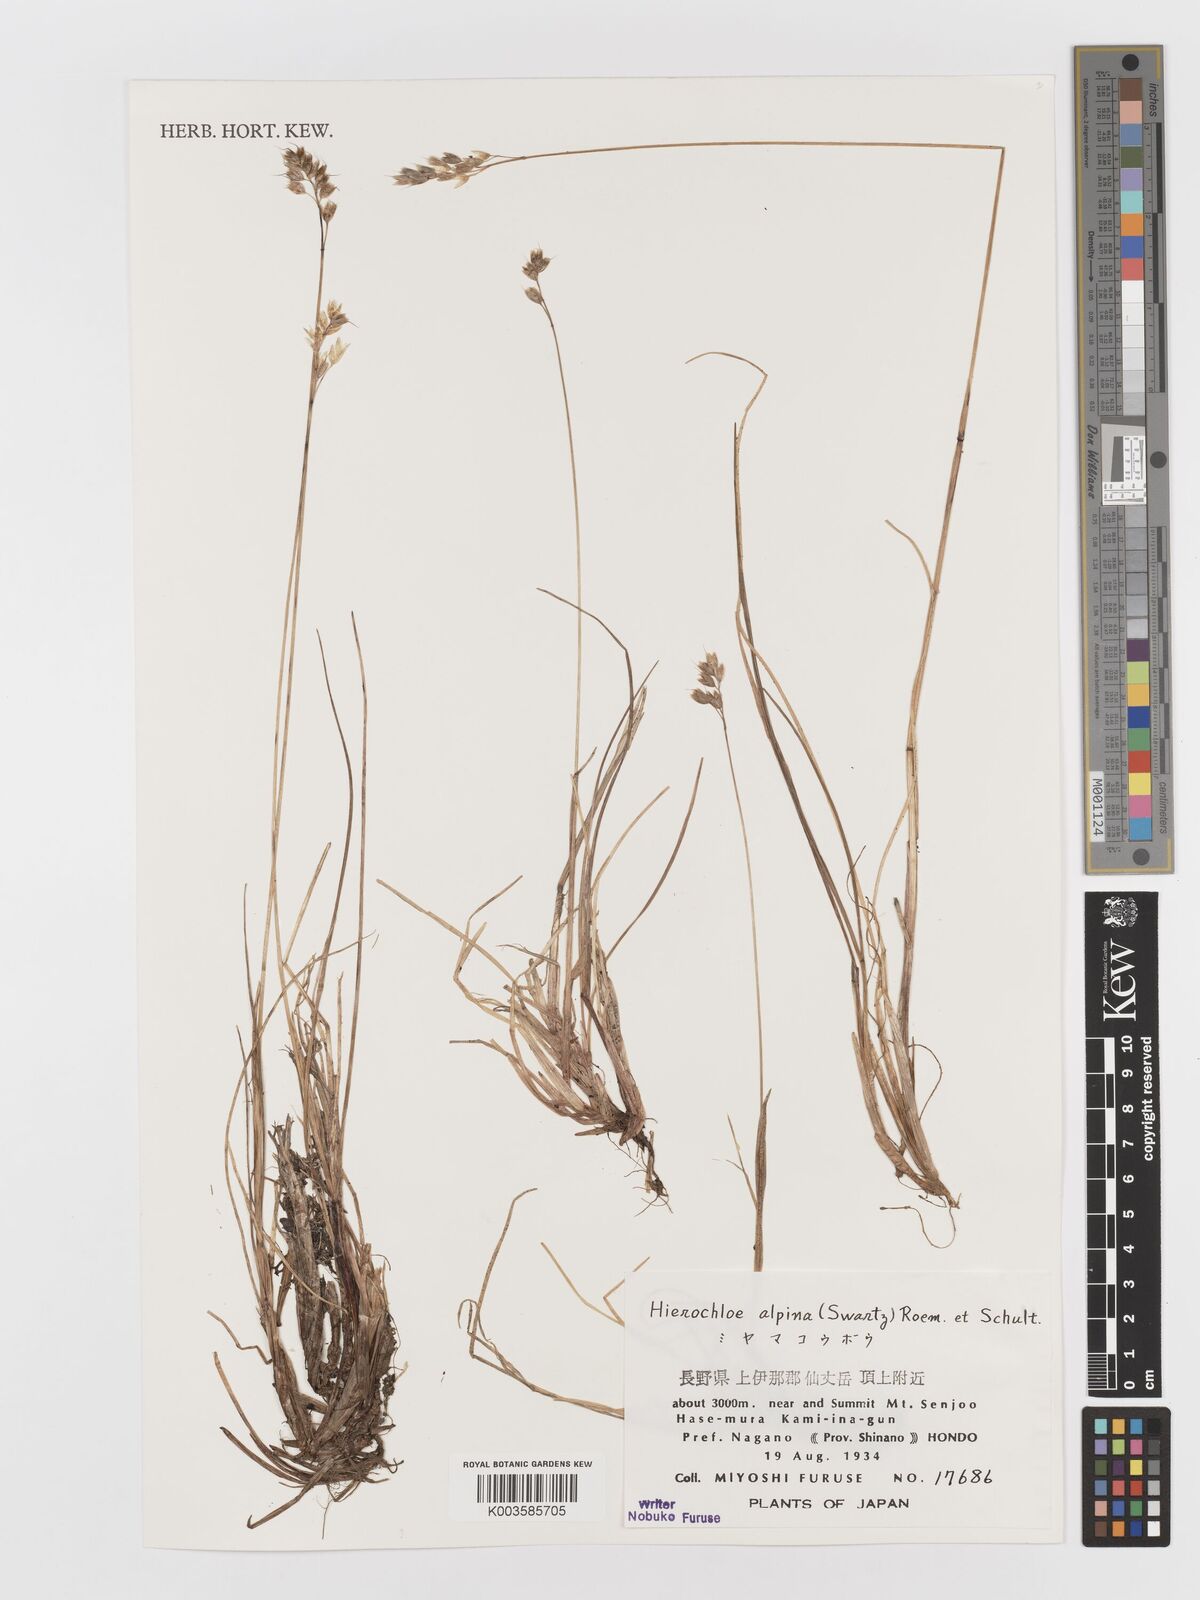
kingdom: Plantae
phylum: Tracheophyta
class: Liliopsida
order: Poales
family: Poaceae
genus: Anthoxanthum
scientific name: Anthoxanthum monticola
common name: Alpine sweetgrass
